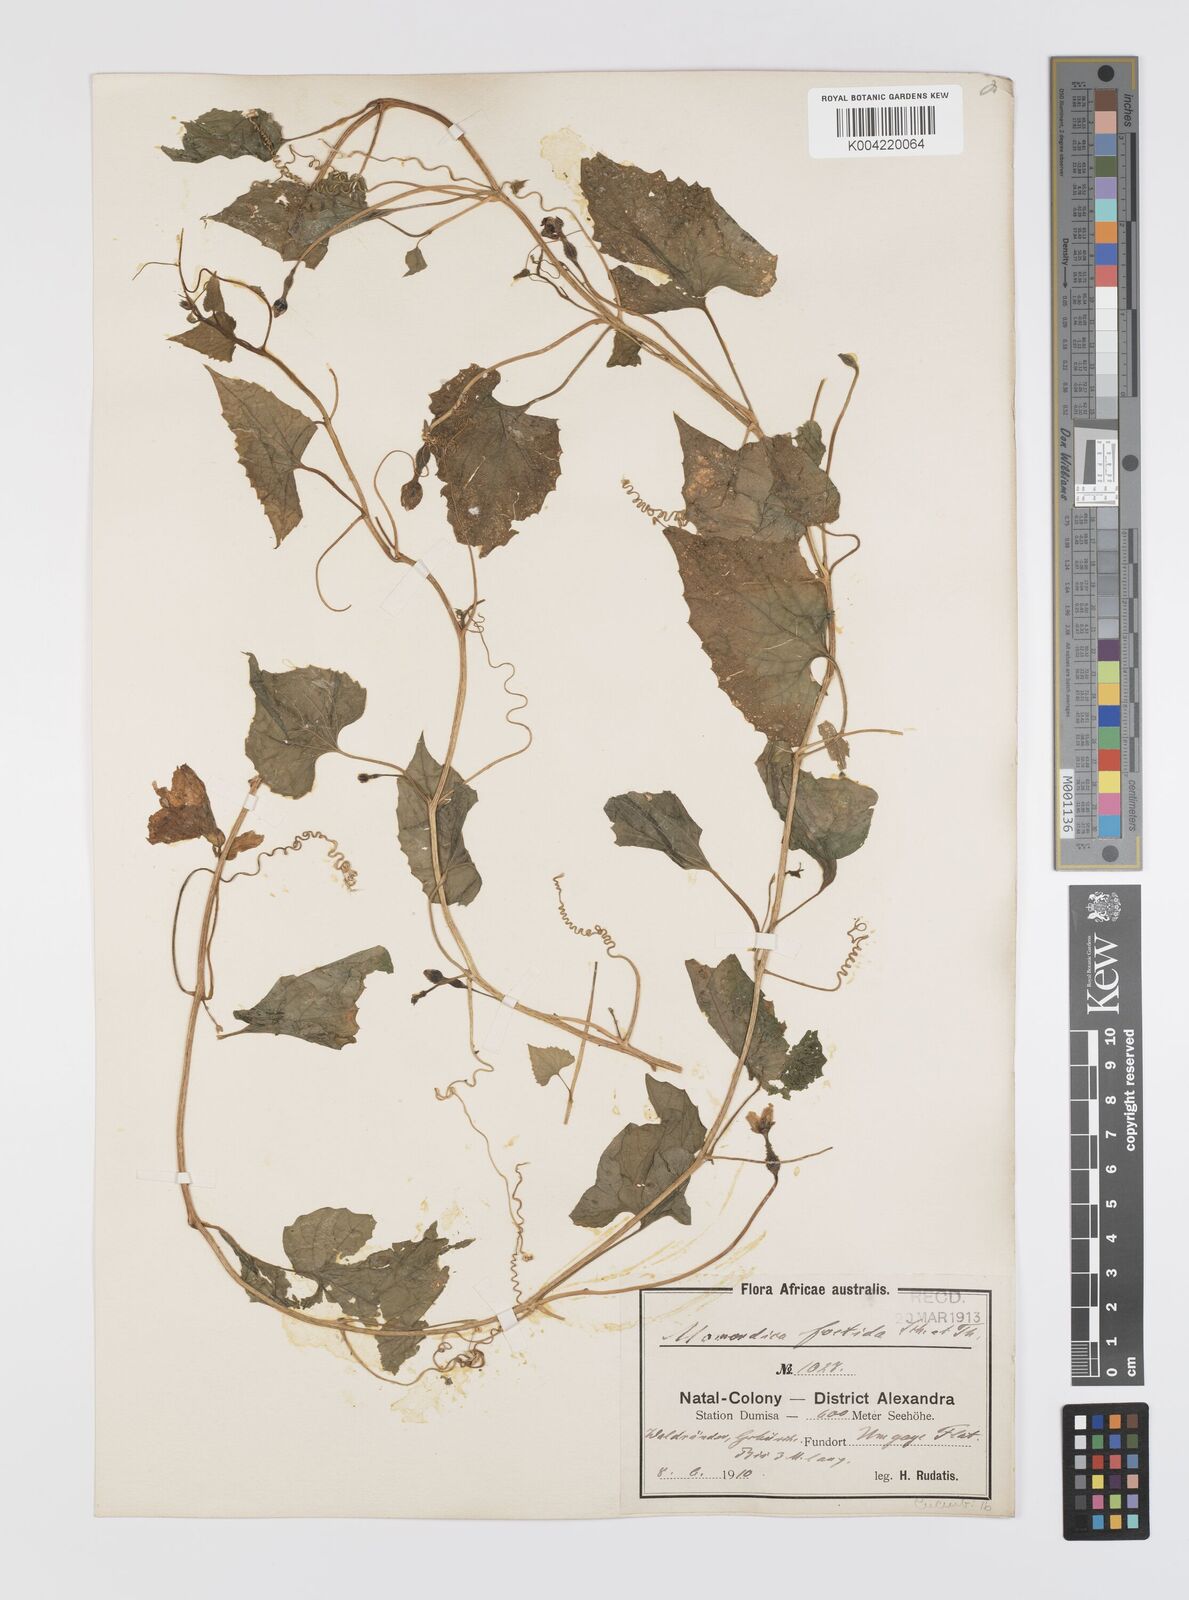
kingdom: Plantae
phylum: Tracheophyta
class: Magnoliopsida
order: Cucurbitales
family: Cucurbitaceae
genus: Momordica
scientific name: Momordica foetida
